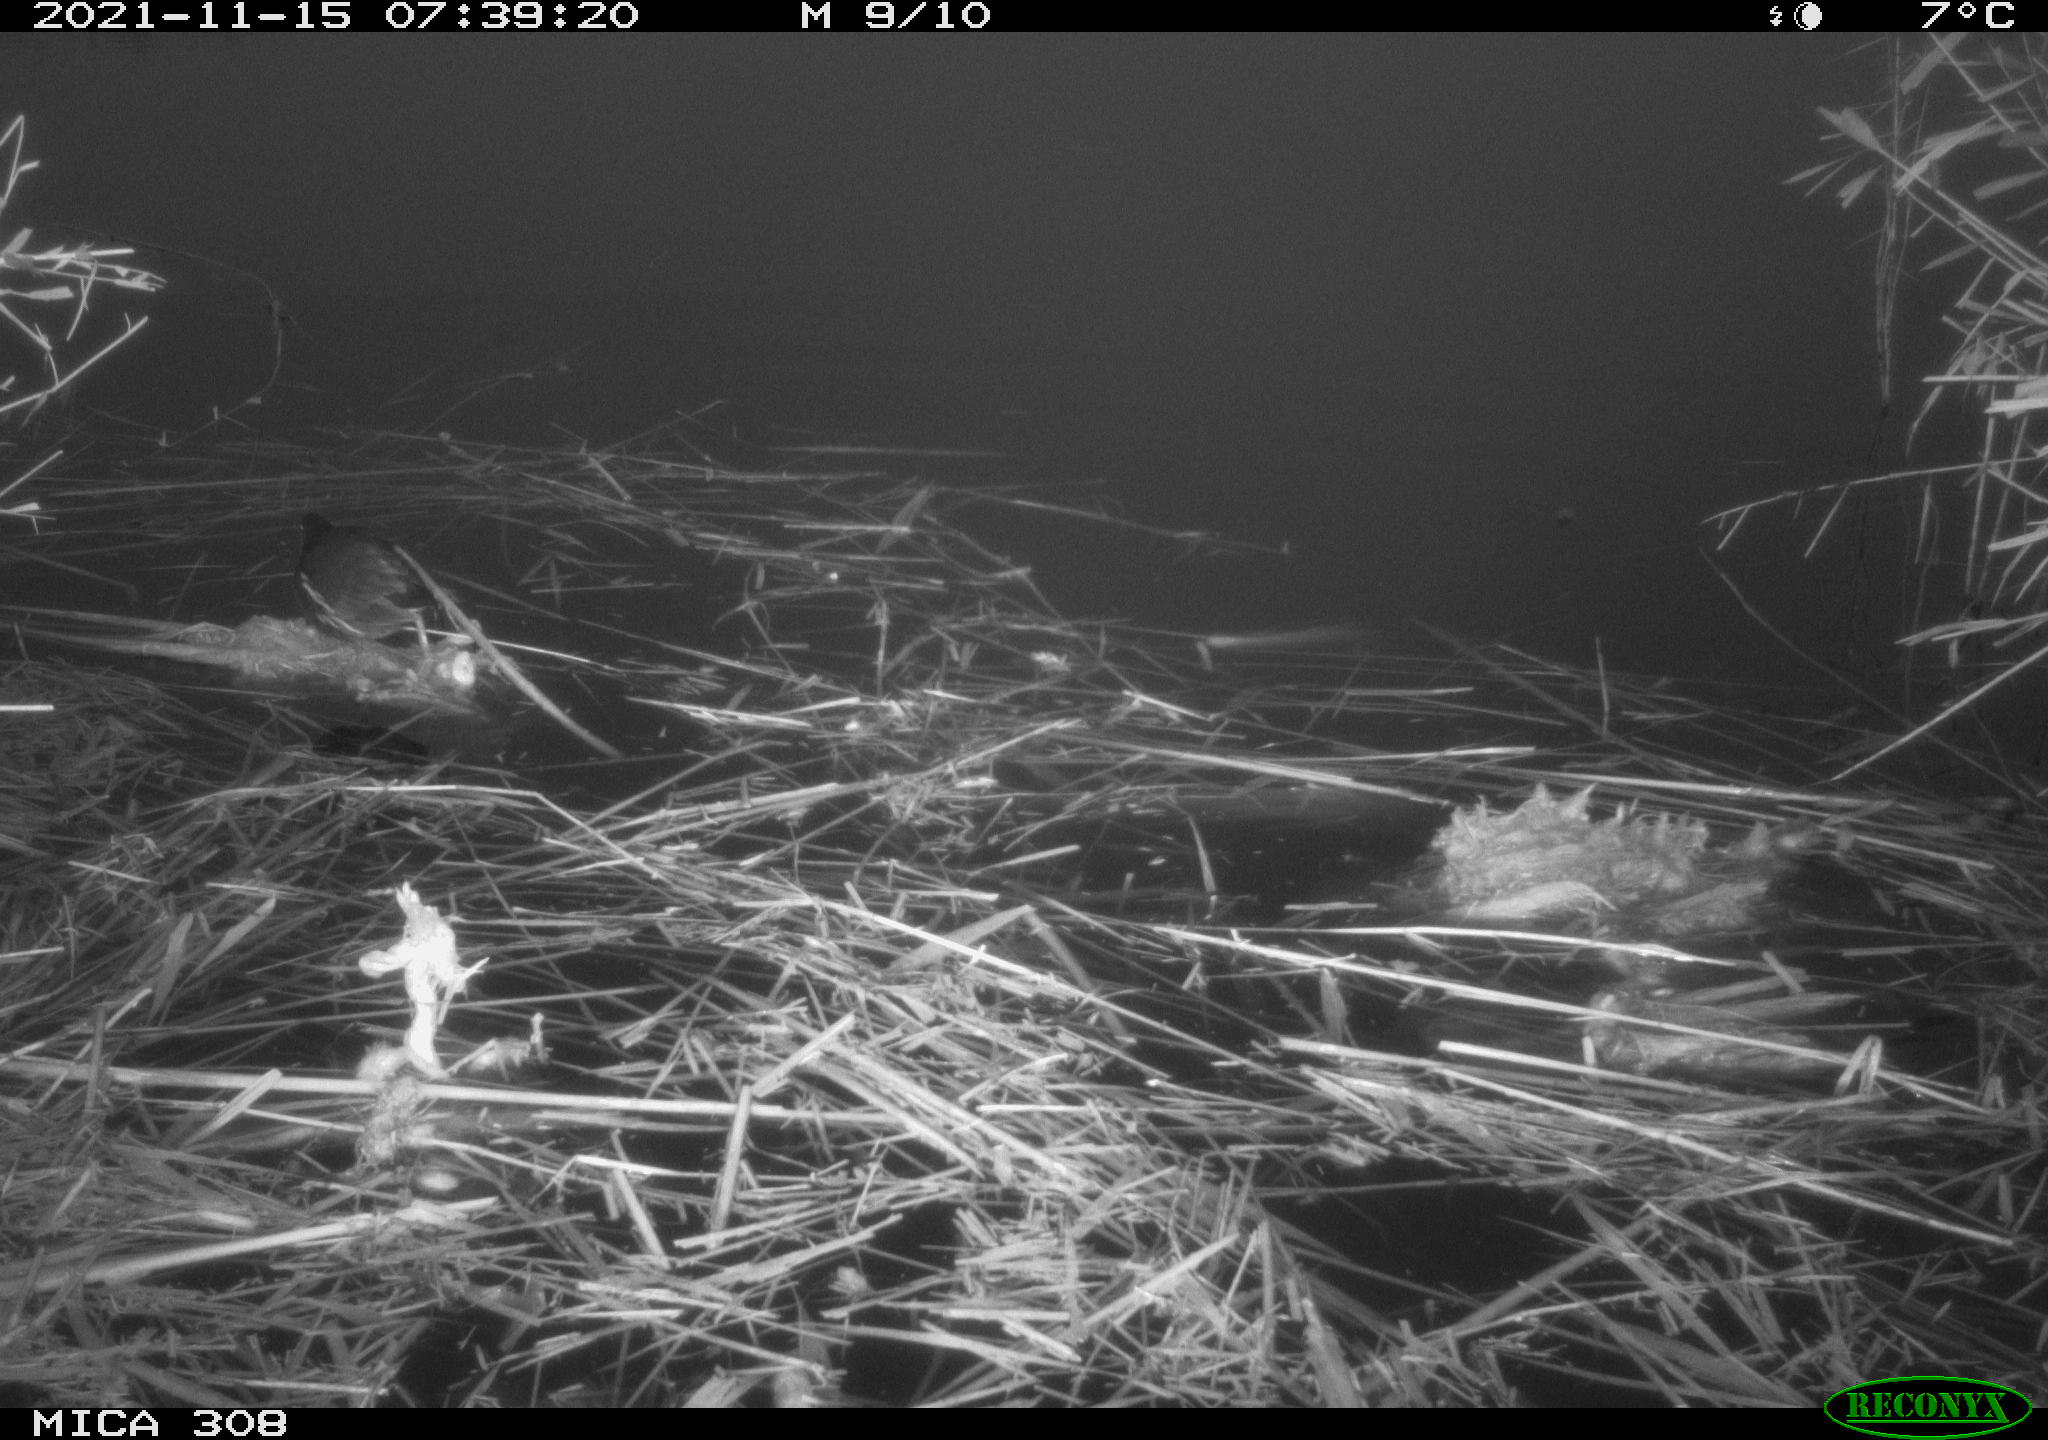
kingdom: Animalia
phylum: Chordata
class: Aves
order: Gruiformes
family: Rallidae
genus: Gallinula
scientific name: Gallinula chloropus
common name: Common moorhen
